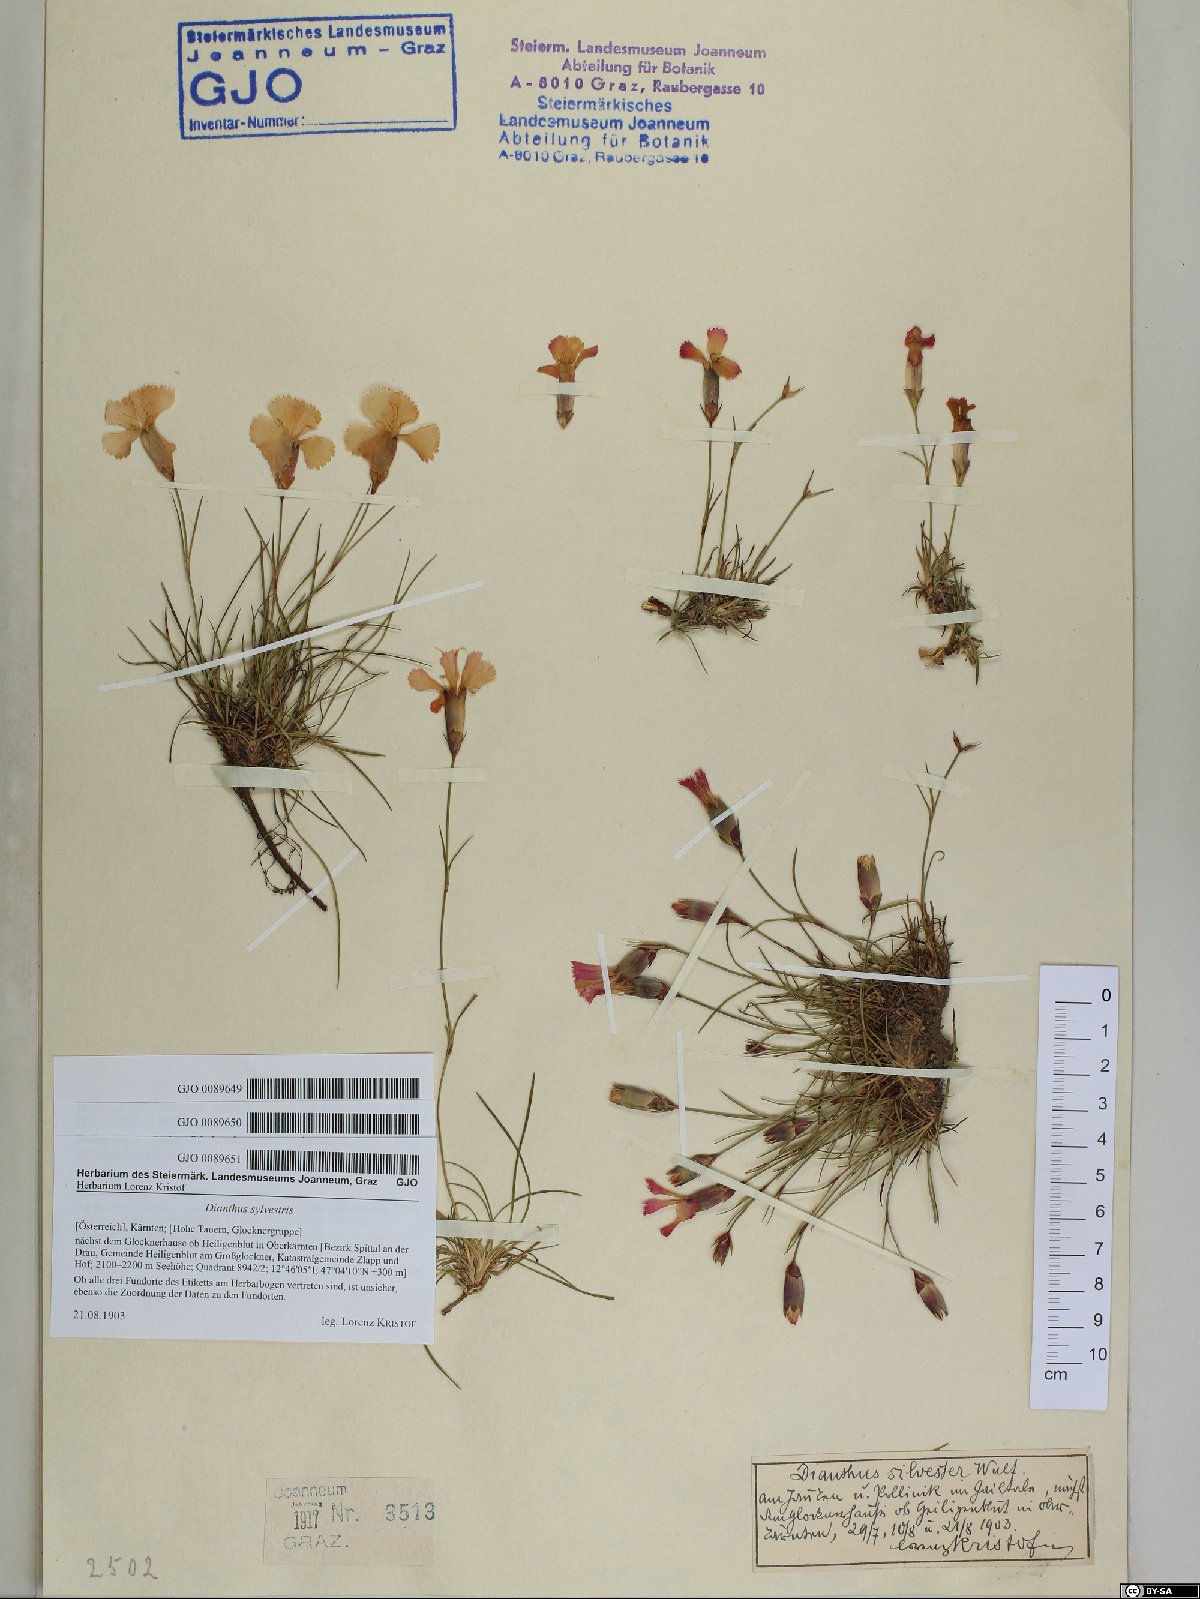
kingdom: Plantae
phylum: Tracheophyta
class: Magnoliopsida
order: Caryophyllales
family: Caryophyllaceae
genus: Dianthus
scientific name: Dianthus sylvestris
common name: Wood pink
